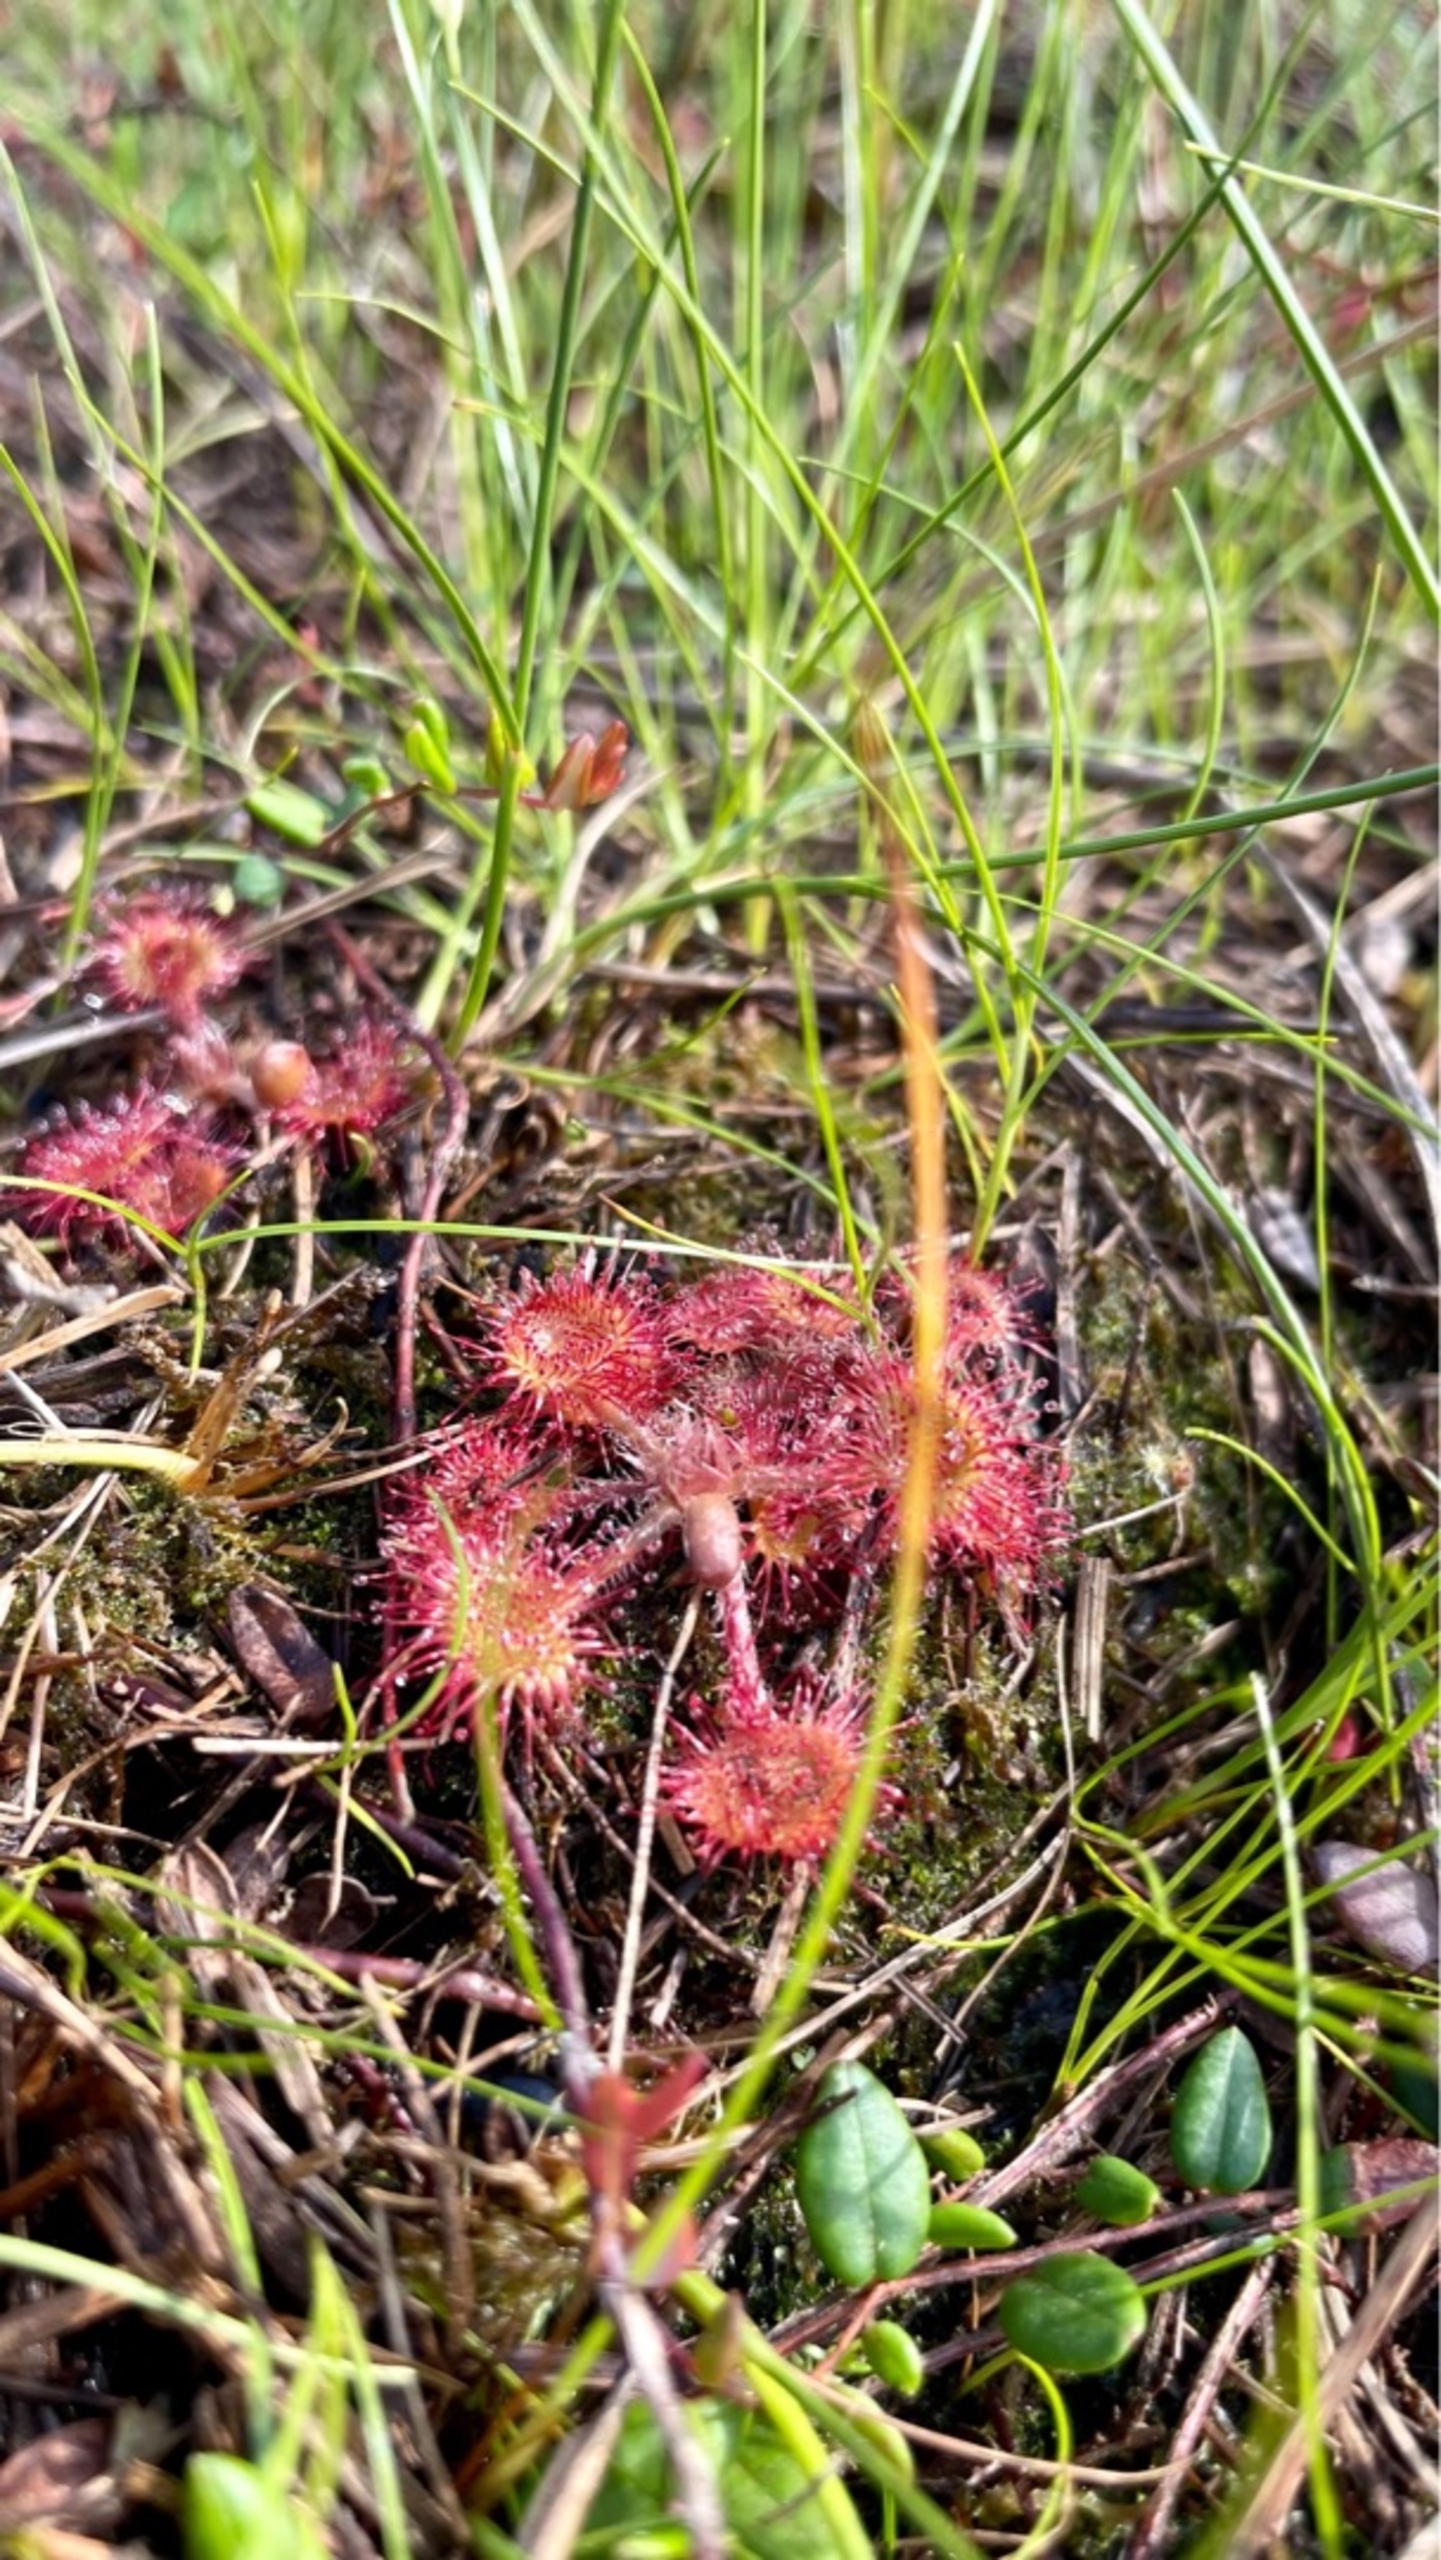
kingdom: Plantae
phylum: Tracheophyta
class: Magnoliopsida
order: Caryophyllales
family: Droseraceae
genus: Drosera
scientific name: Drosera rotundifolia
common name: Rundbladet soldug
